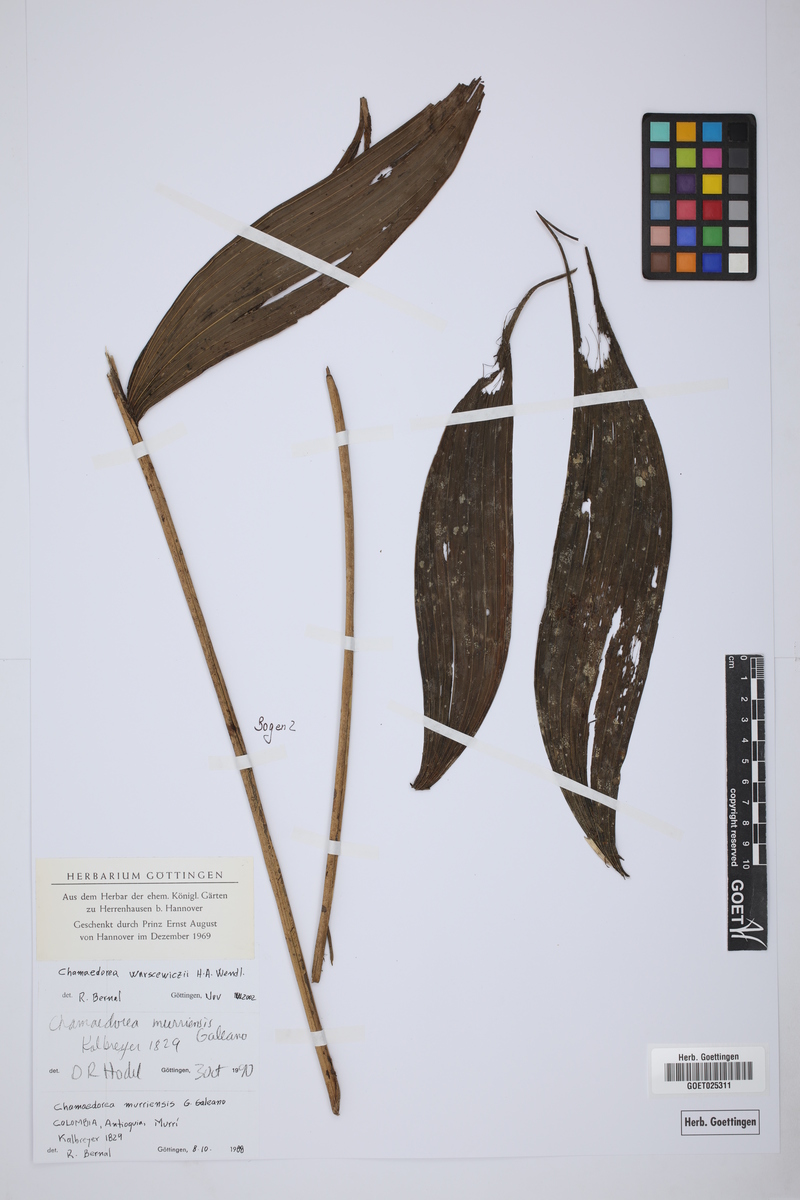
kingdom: Plantae
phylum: Tracheophyta
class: Liliopsida
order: Arecales
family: Arecaceae
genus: Chamaedorea
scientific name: Chamaedorea warscewiczii
